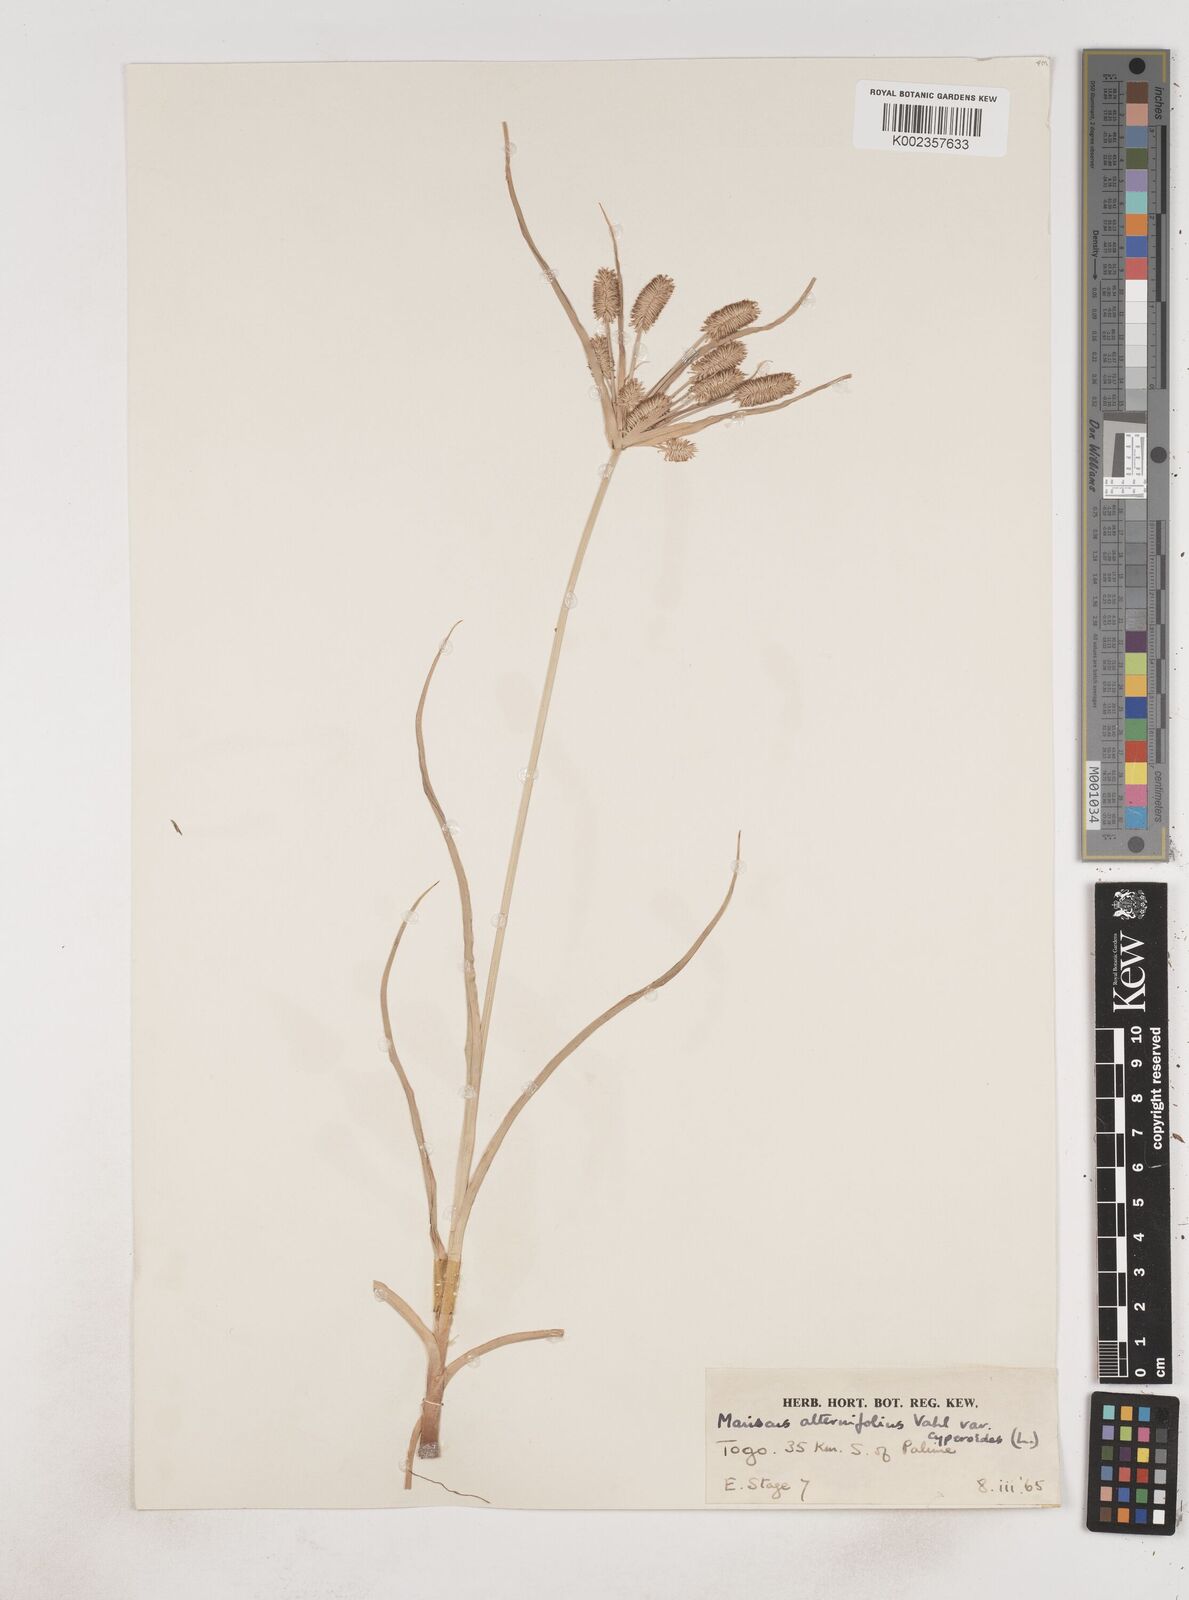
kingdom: Plantae
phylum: Tracheophyta
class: Liliopsida
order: Poales
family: Cyperaceae
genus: Cyperus
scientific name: Cyperus cyperoides
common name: Pacific island flat sedge
